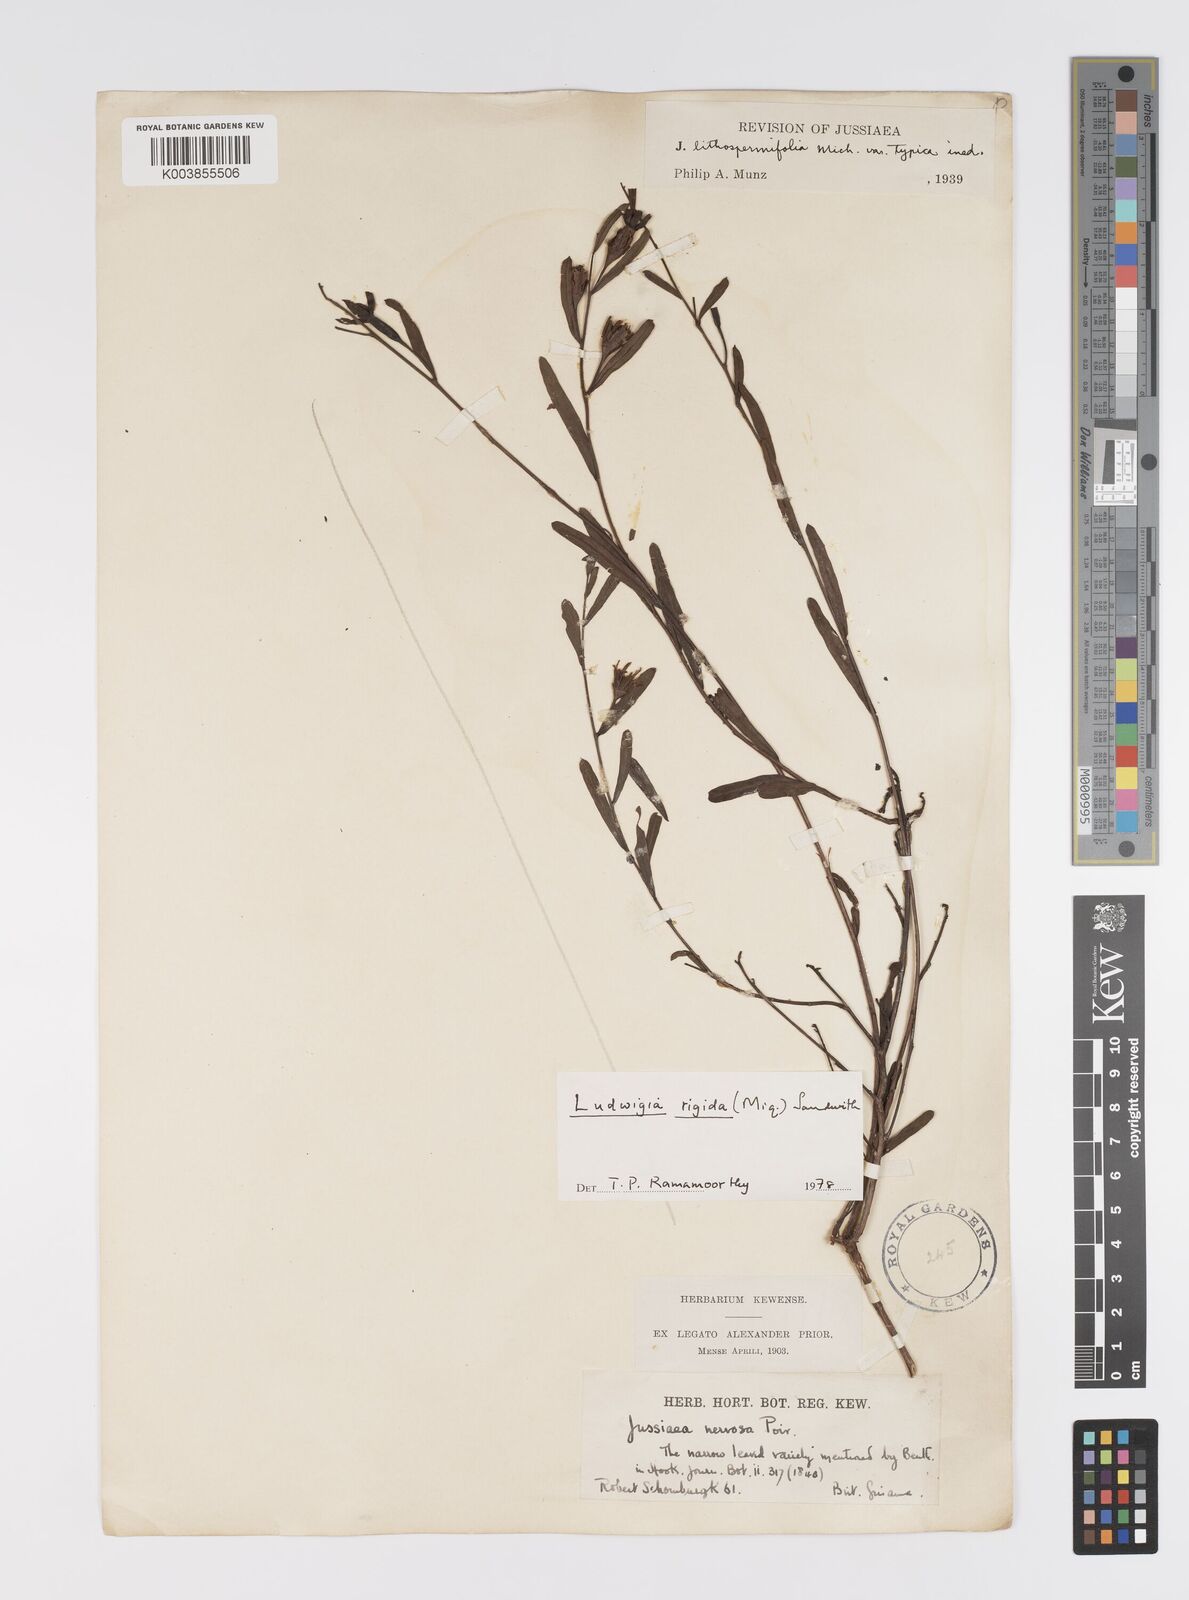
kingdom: Plantae
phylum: Tracheophyta
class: Magnoliopsida
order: Myrtales
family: Onagraceae
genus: Ludwigia
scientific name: Ludwigia rigida
